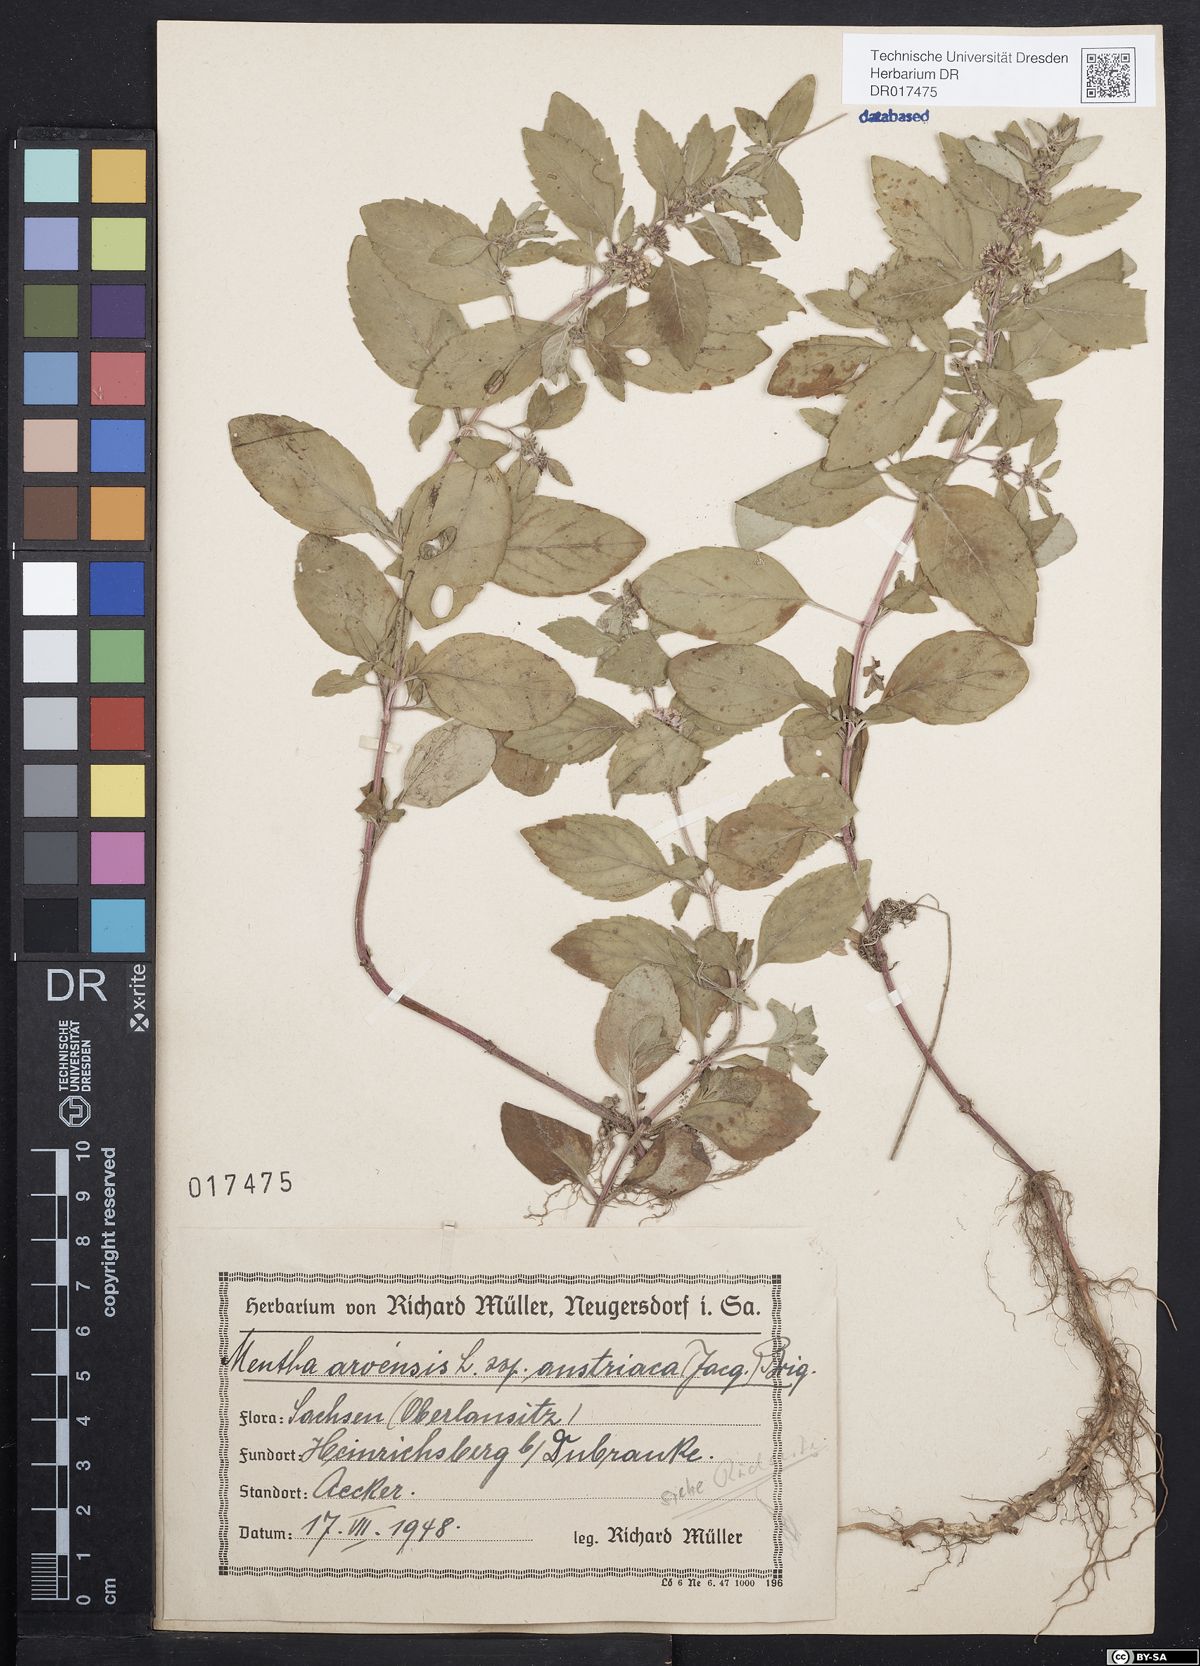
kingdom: Plantae
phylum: Tracheophyta
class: Magnoliopsida
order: Lamiales
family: Lamiaceae
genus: Mentha
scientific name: Mentha arvensis
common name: Corn mint
